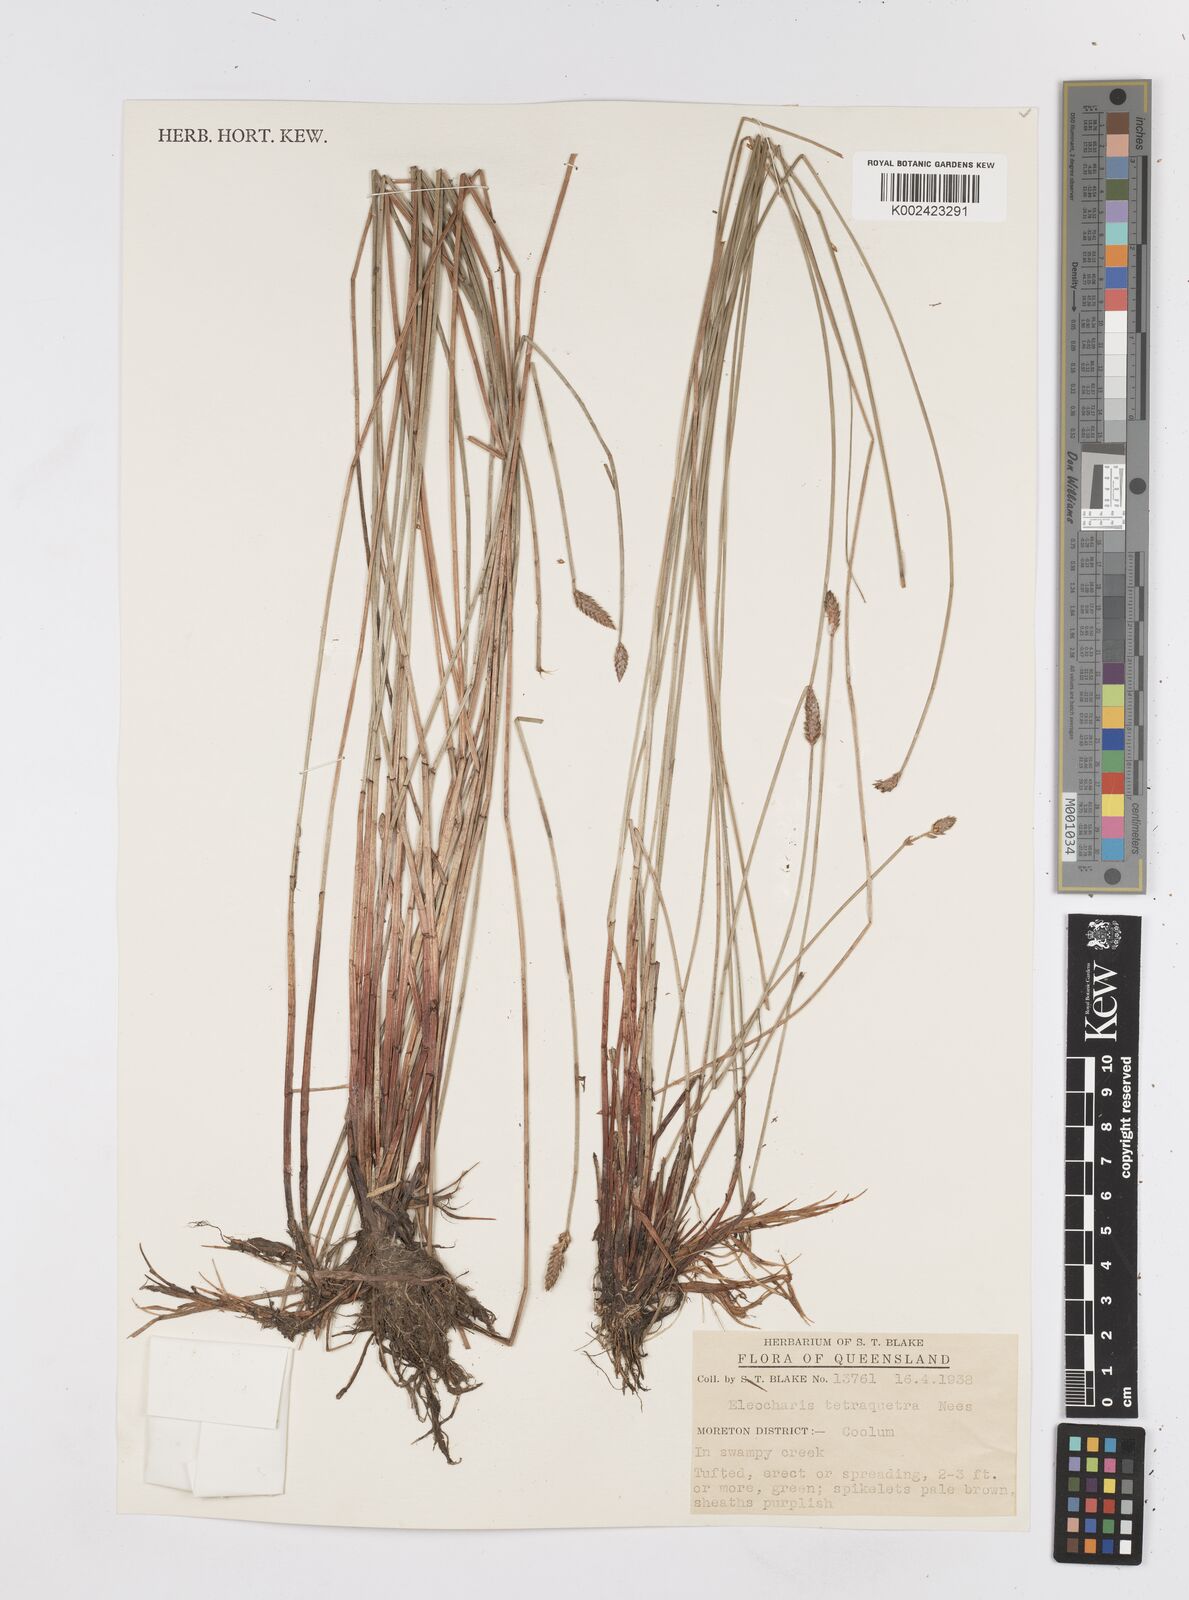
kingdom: Plantae
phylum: Tracheophyta
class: Liliopsida
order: Poales
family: Cyperaceae
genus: Eleocharis
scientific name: Eleocharis tetraquetra
